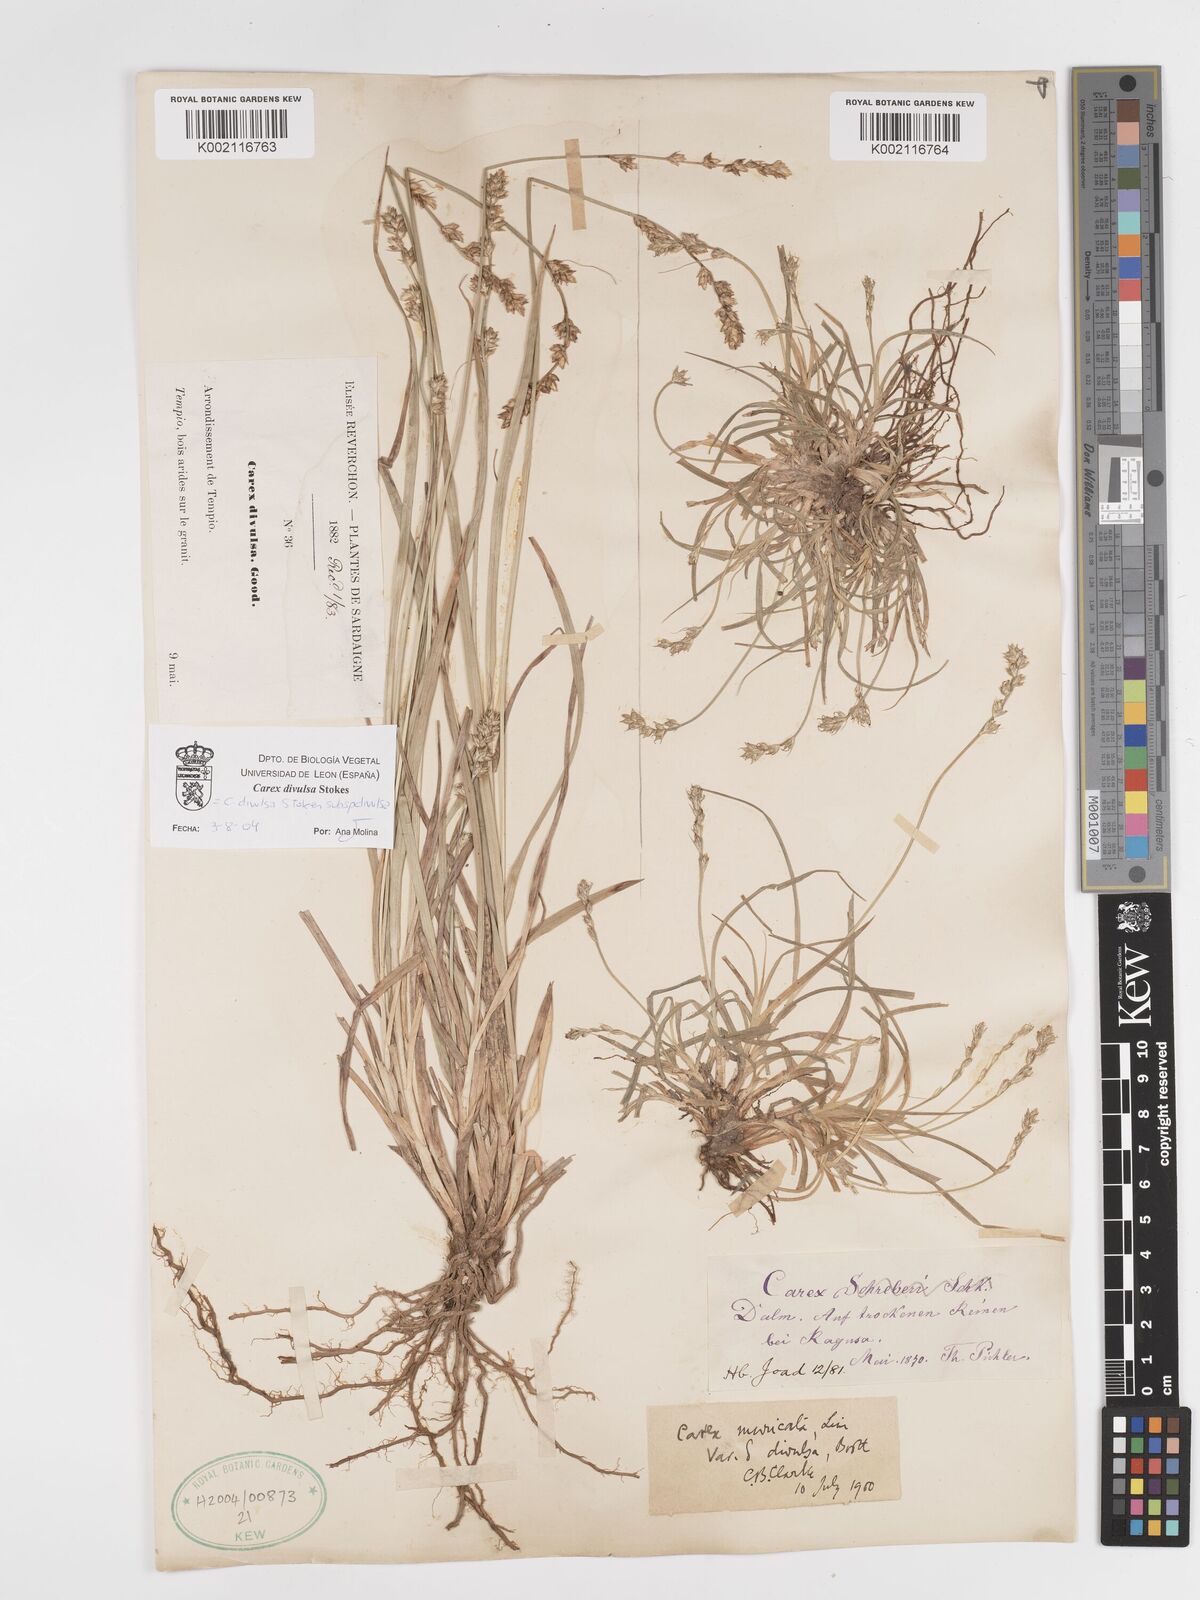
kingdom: Plantae
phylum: Tracheophyta
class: Liliopsida
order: Poales
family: Cyperaceae
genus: Carex
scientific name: Carex divulsa
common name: Grassland sedge
